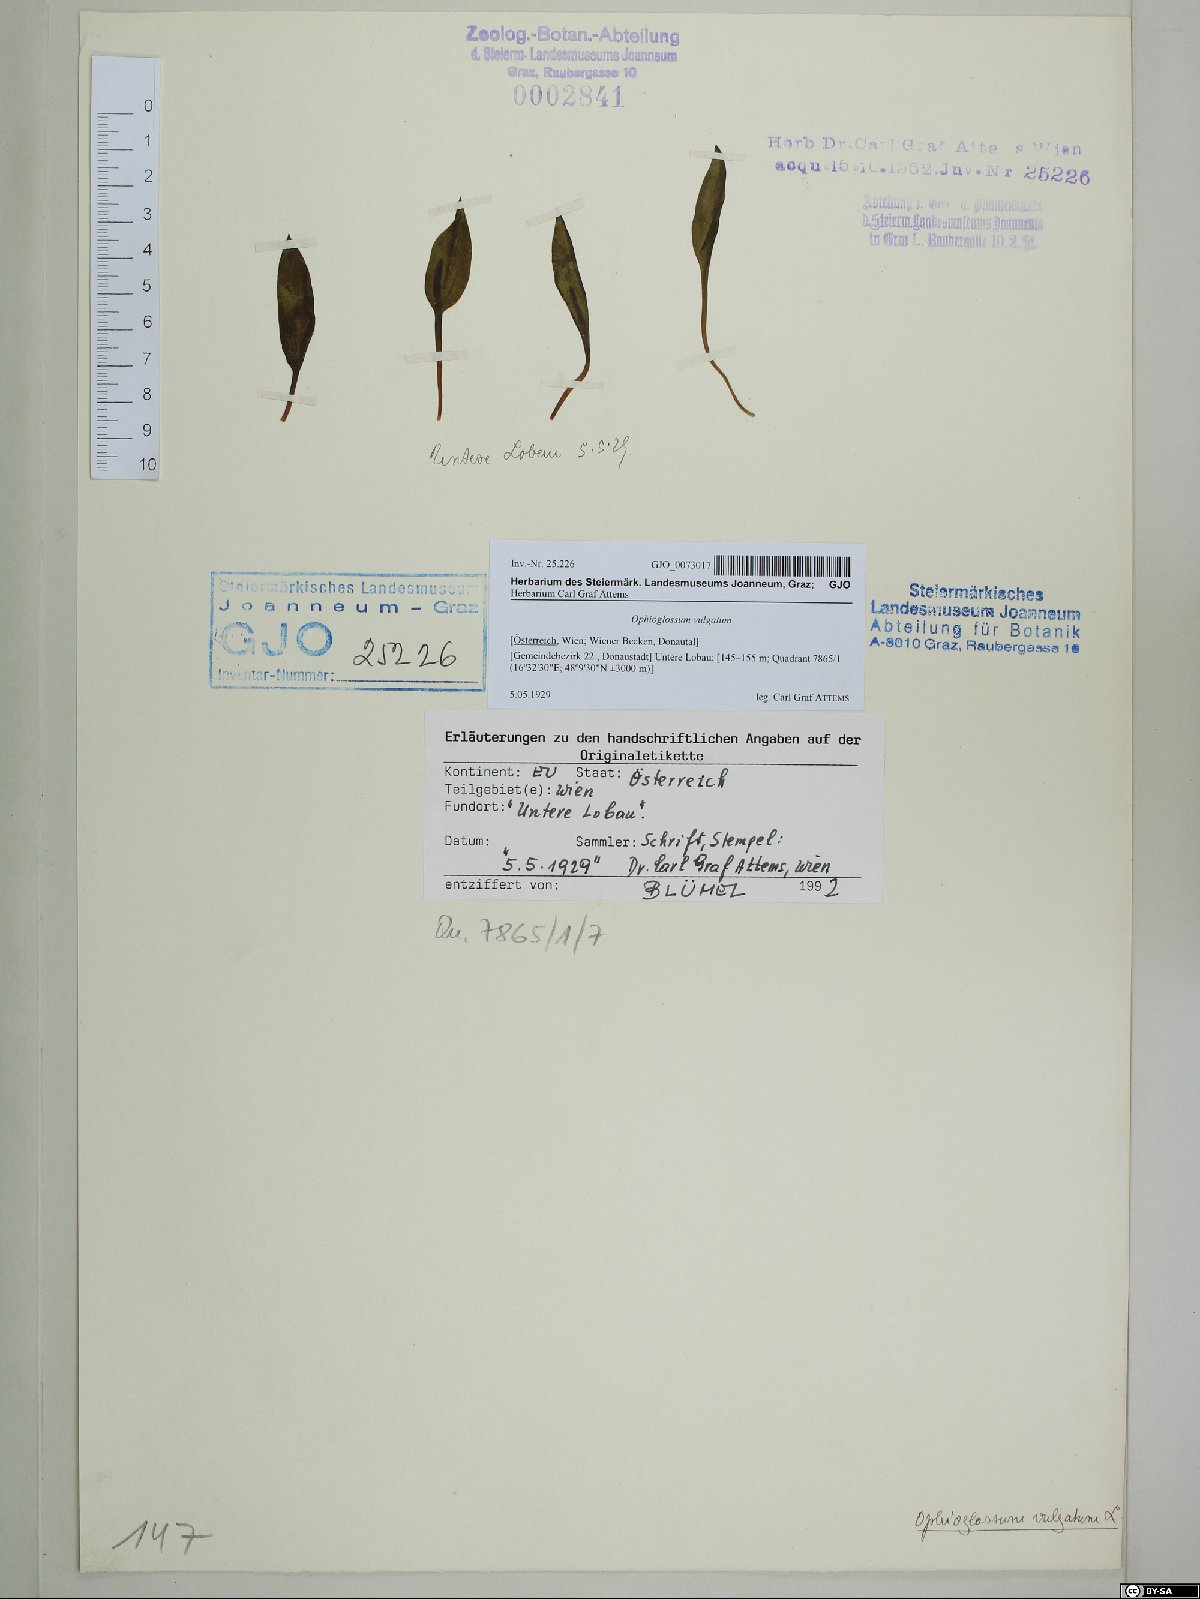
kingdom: Plantae
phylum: Tracheophyta
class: Polypodiopsida
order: Ophioglossales
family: Ophioglossaceae
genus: Ophioglossum
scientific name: Ophioglossum vulgatum
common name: Adder's-tongue
